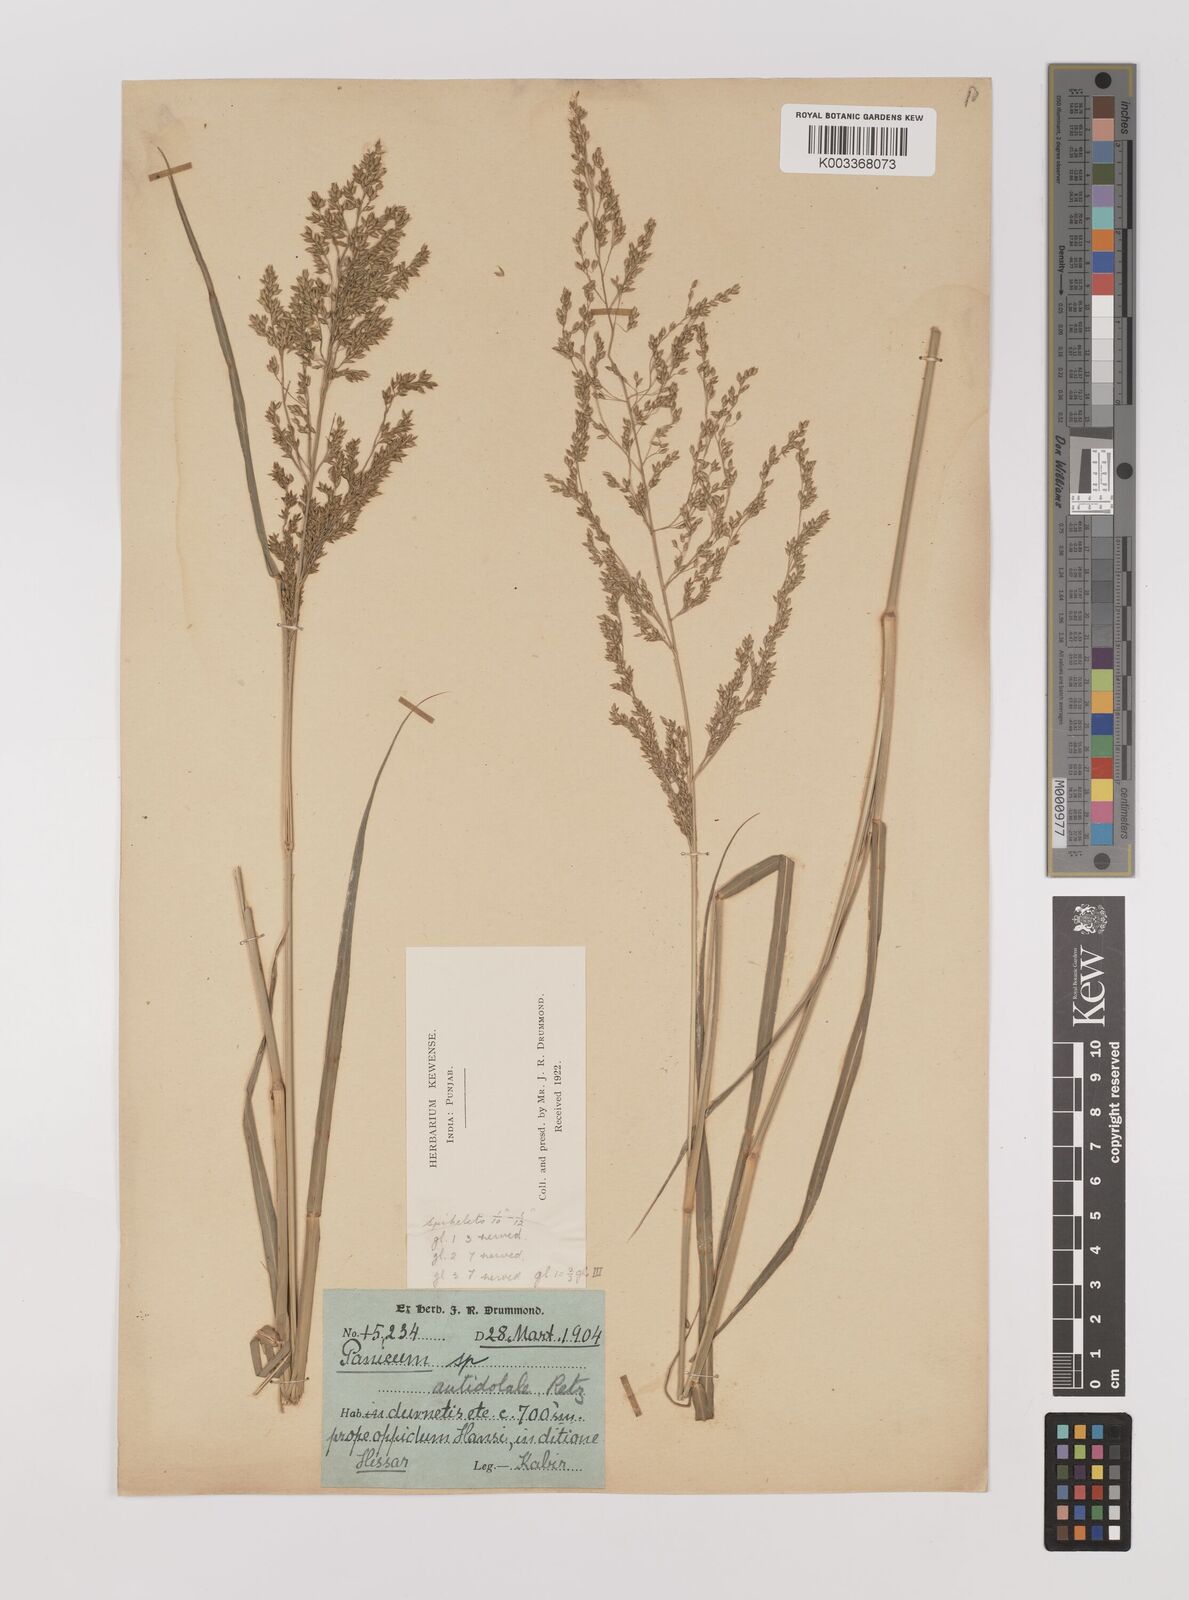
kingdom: Plantae
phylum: Tracheophyta
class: Liliopsida
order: Poales
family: Poaceae
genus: Panicum
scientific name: Panicum antidotale
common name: Blue panicum
